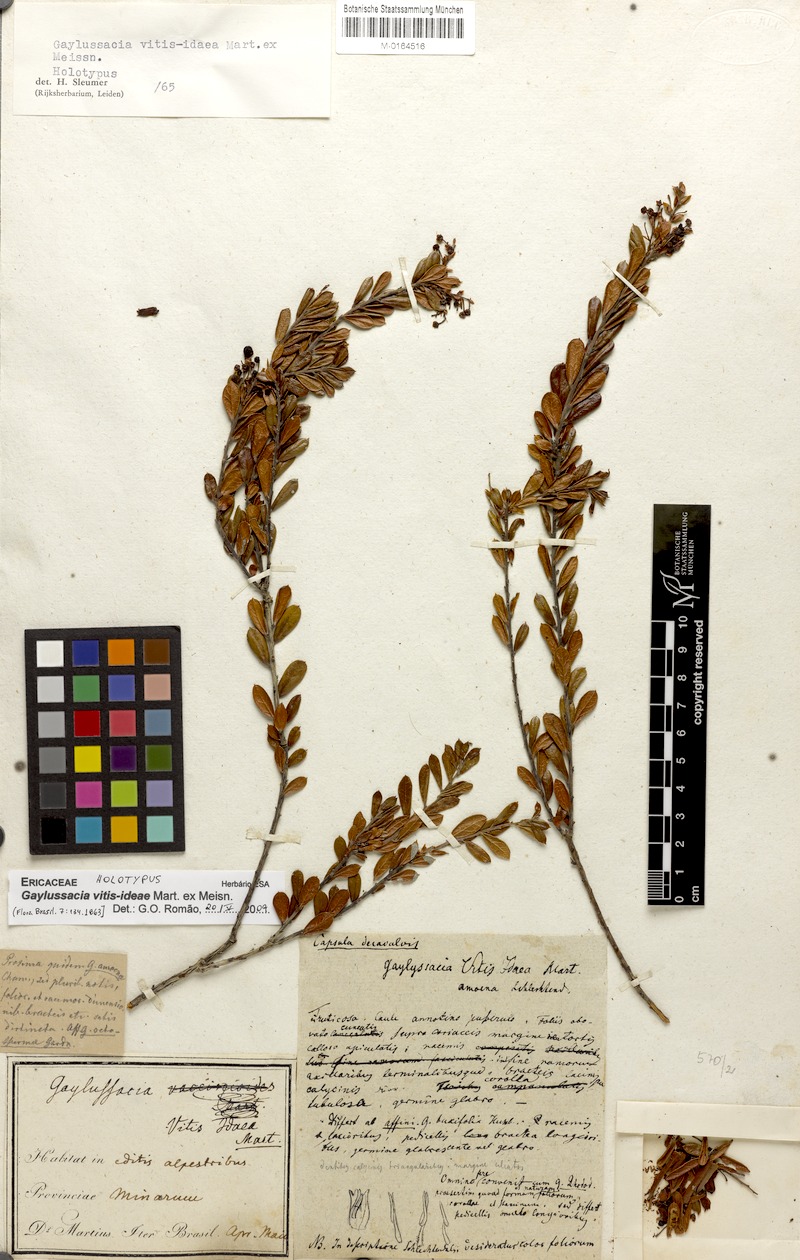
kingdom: Plantae
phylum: Tracheophyta
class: Magnoliopsida
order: Ericales
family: Ericaceae
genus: Gaylussacia
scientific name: Gaylussacia vitis-idaea
